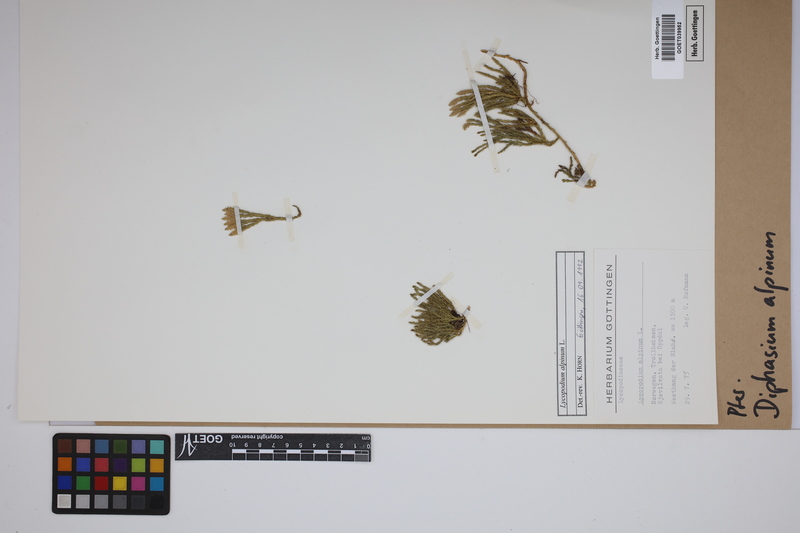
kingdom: Plantae
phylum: Tracheophyta
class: Lycopodiopsida
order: Lycopodiales
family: Lycopodiaceae
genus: Diphasiastrum
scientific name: Diphasiastrum alpinum
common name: Alpine clubmoss
